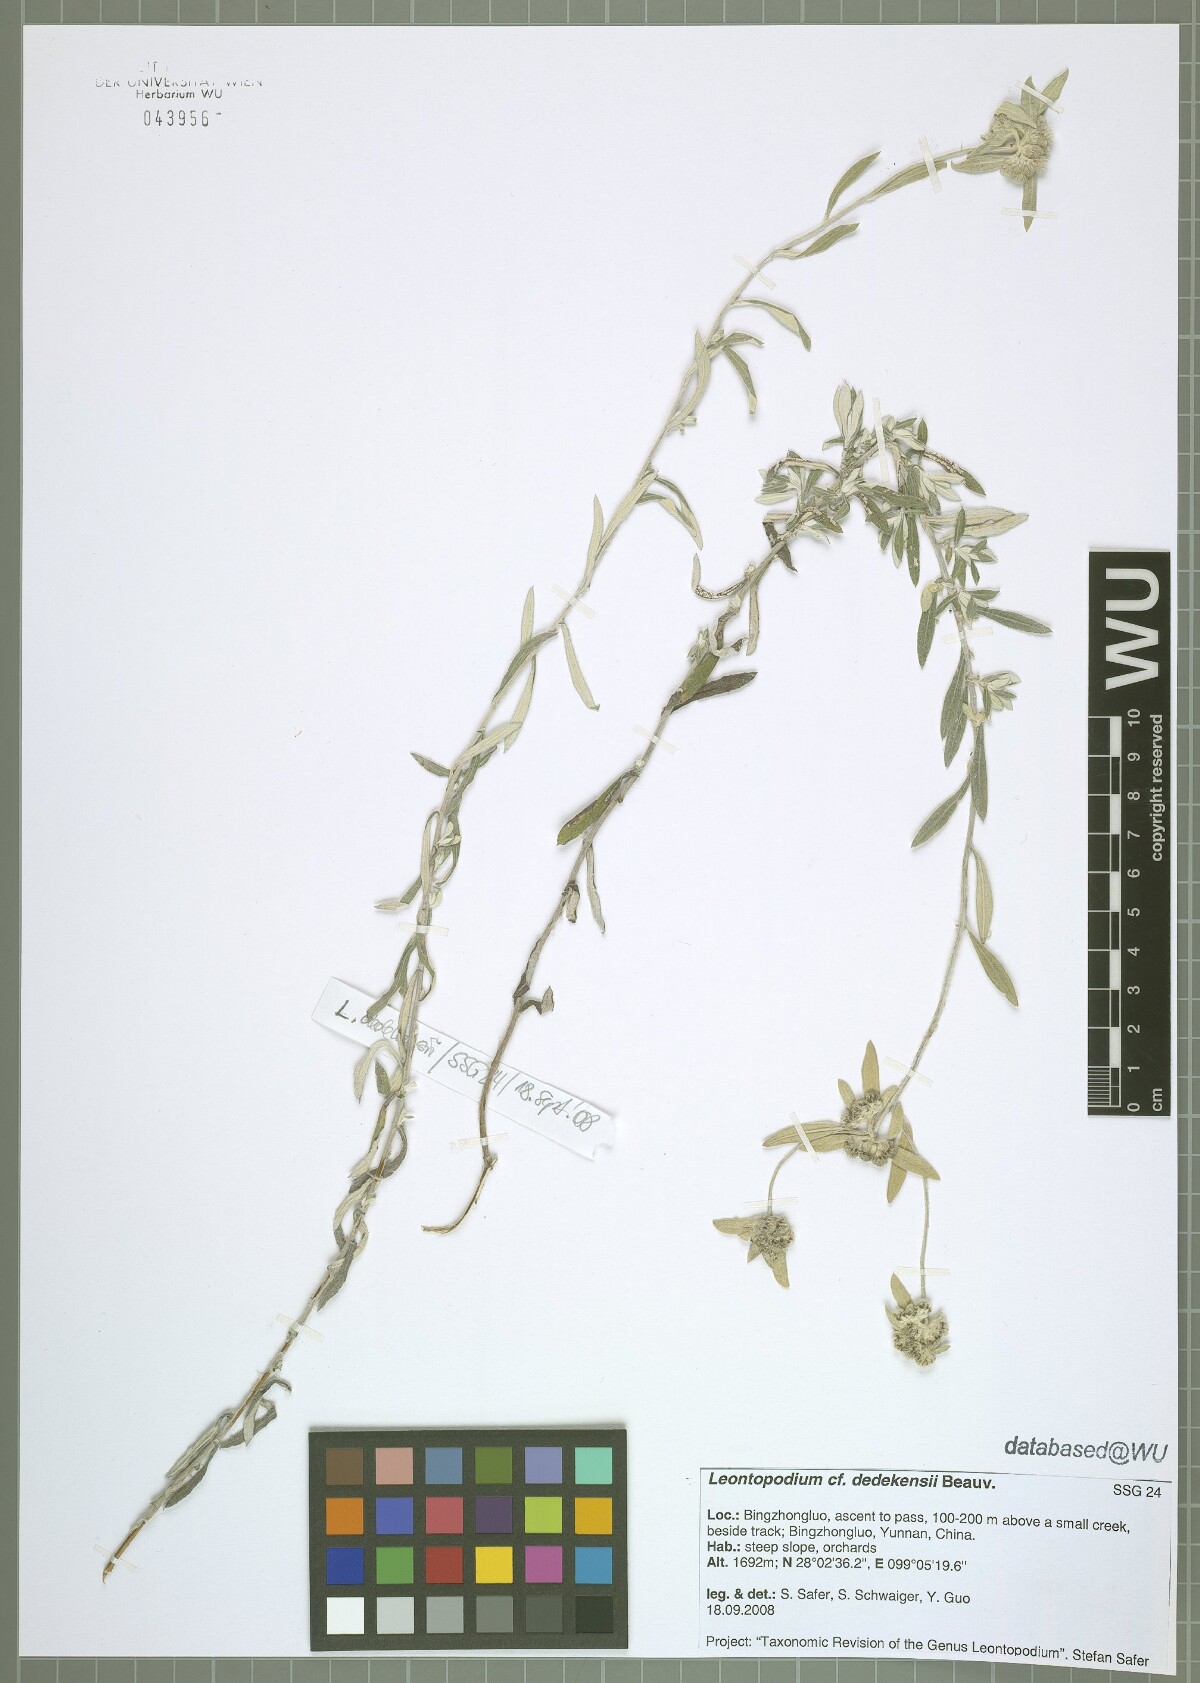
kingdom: Plantae
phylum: Tracheophyta
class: Magnoliopsida
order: Asterales
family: Asteraceae
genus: Leontopodium
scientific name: Leontopodium dedekensii
